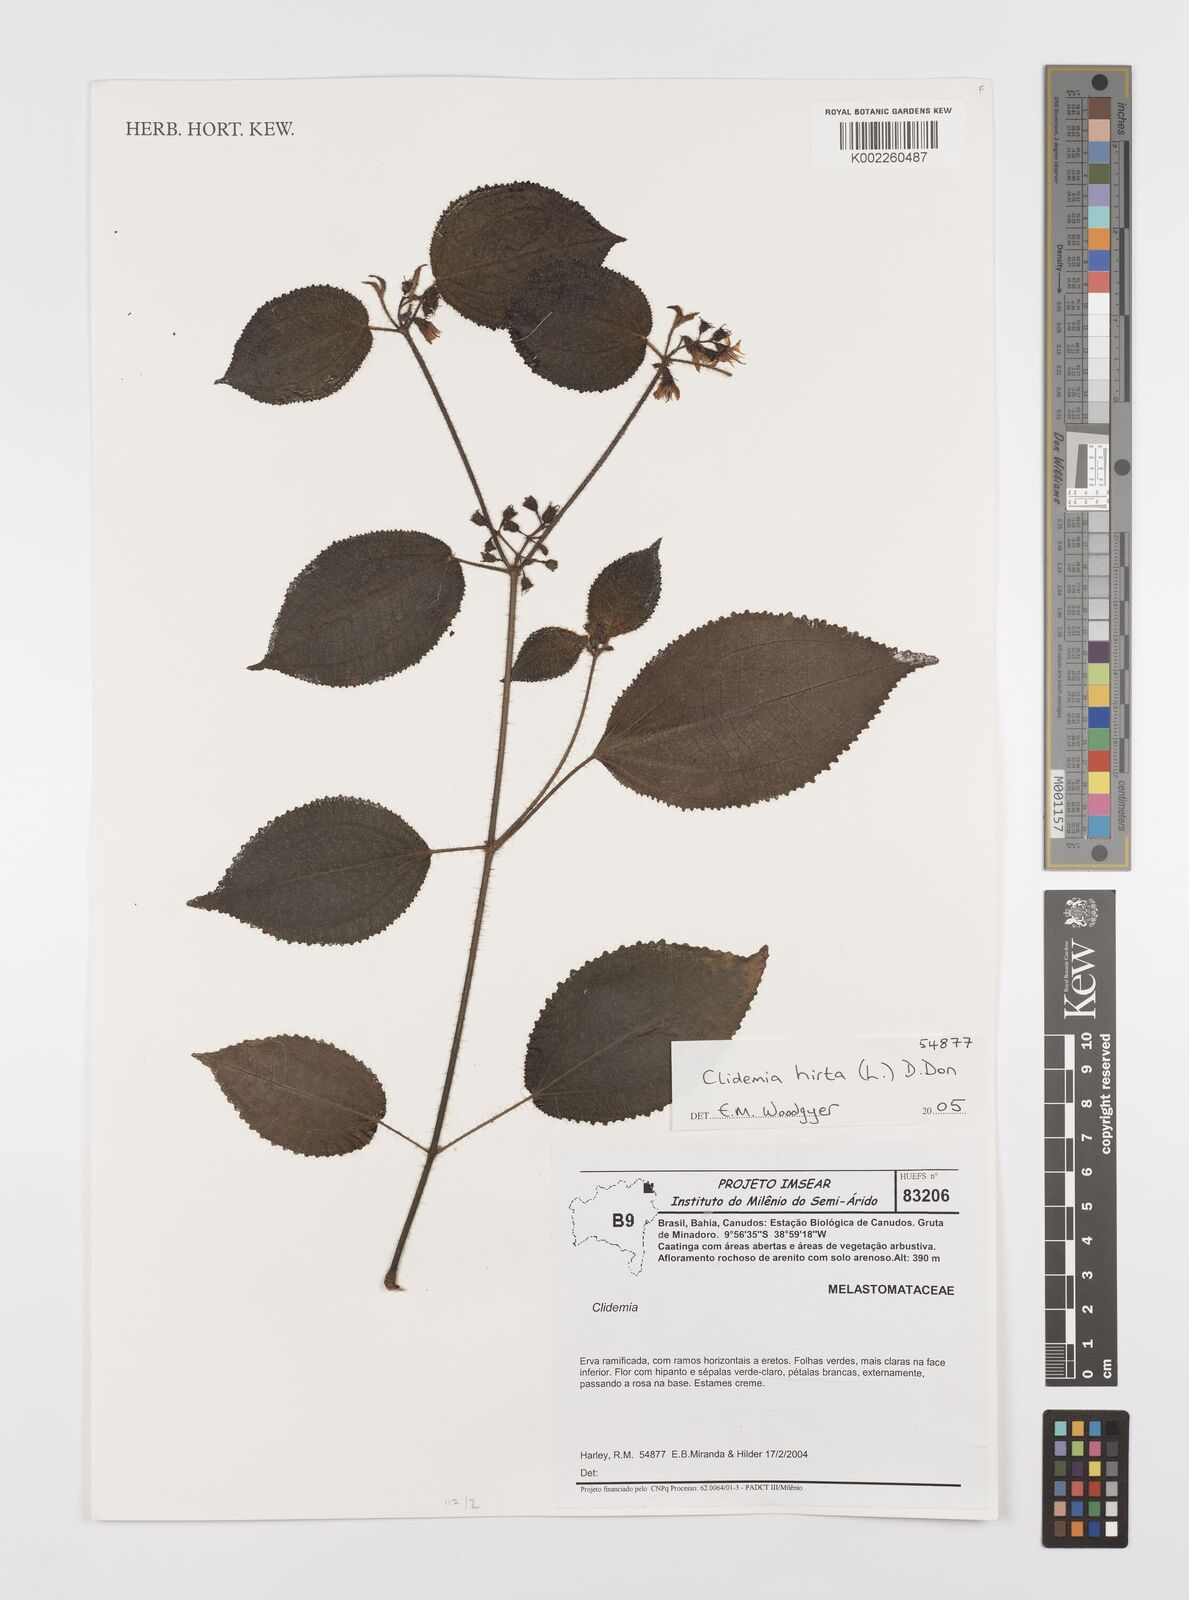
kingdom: Plantae
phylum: Tracheophyta
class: Magnoliopsida
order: Myrtales
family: Melastomataceae
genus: Miconia
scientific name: Miconia crenata
